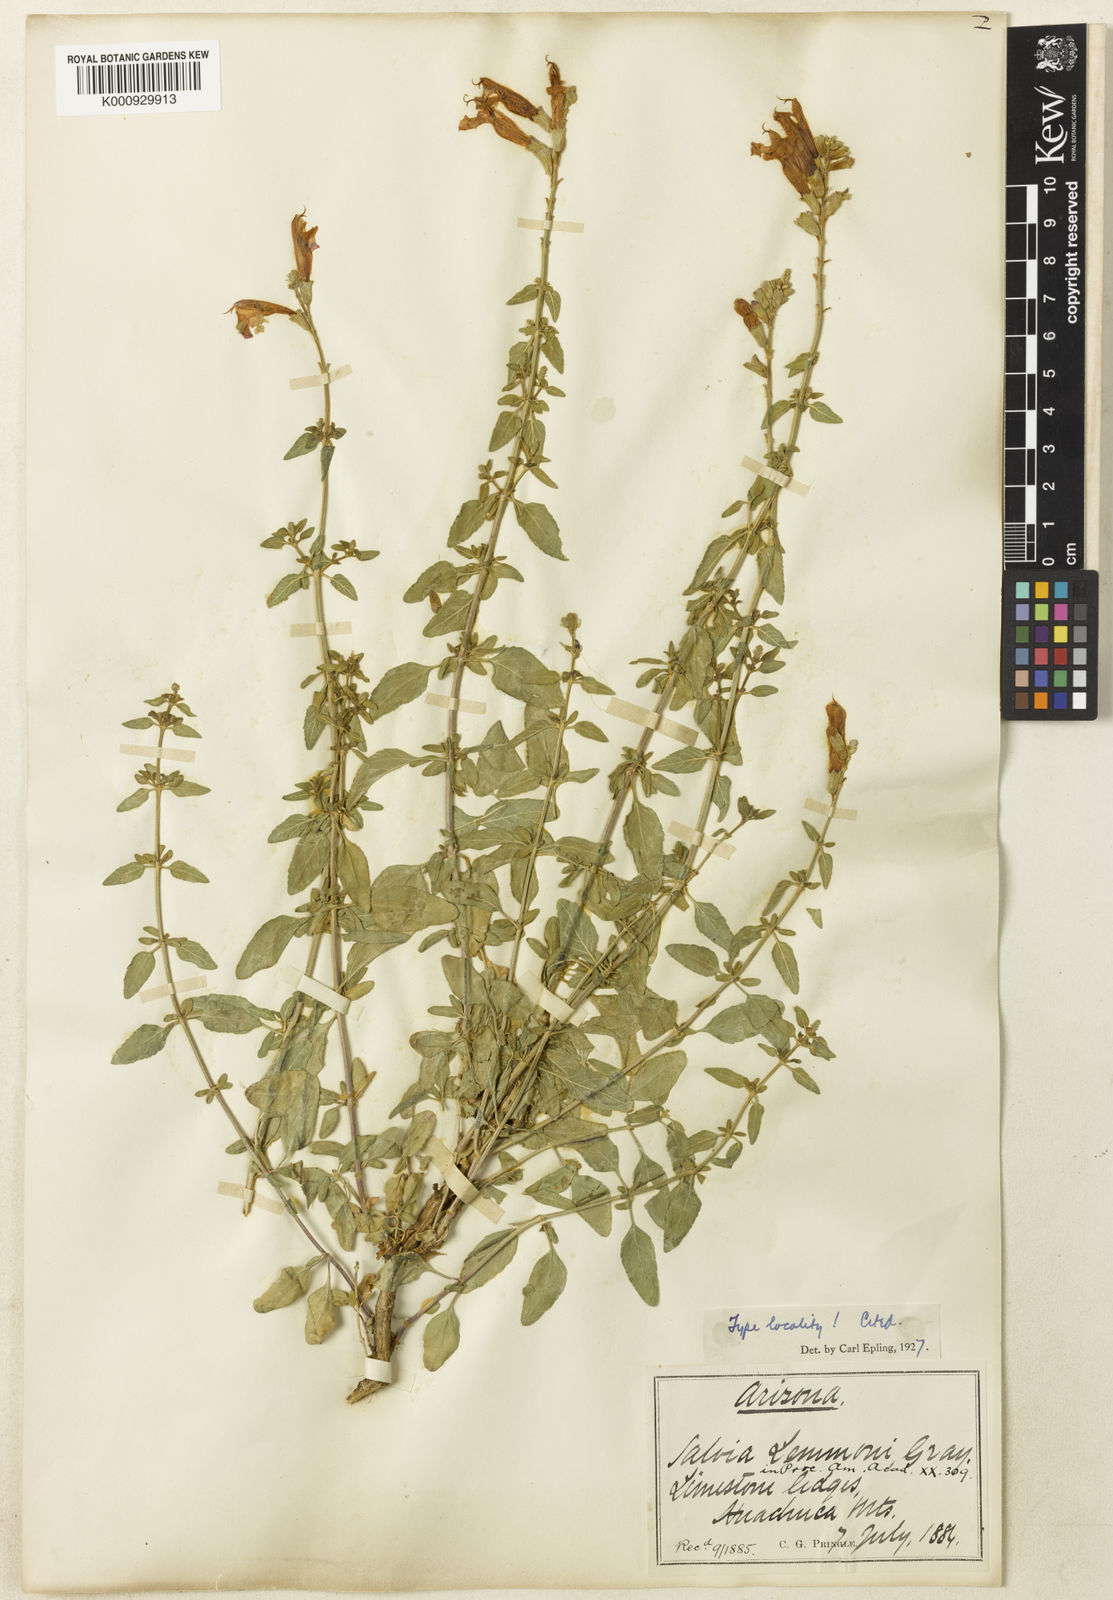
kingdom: Plantae
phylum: Tracheophyta
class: Magnoliopsida
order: Lamiales
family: Lamiaceae
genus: Salvia
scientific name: Salvia microphylla
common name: Baby sage
